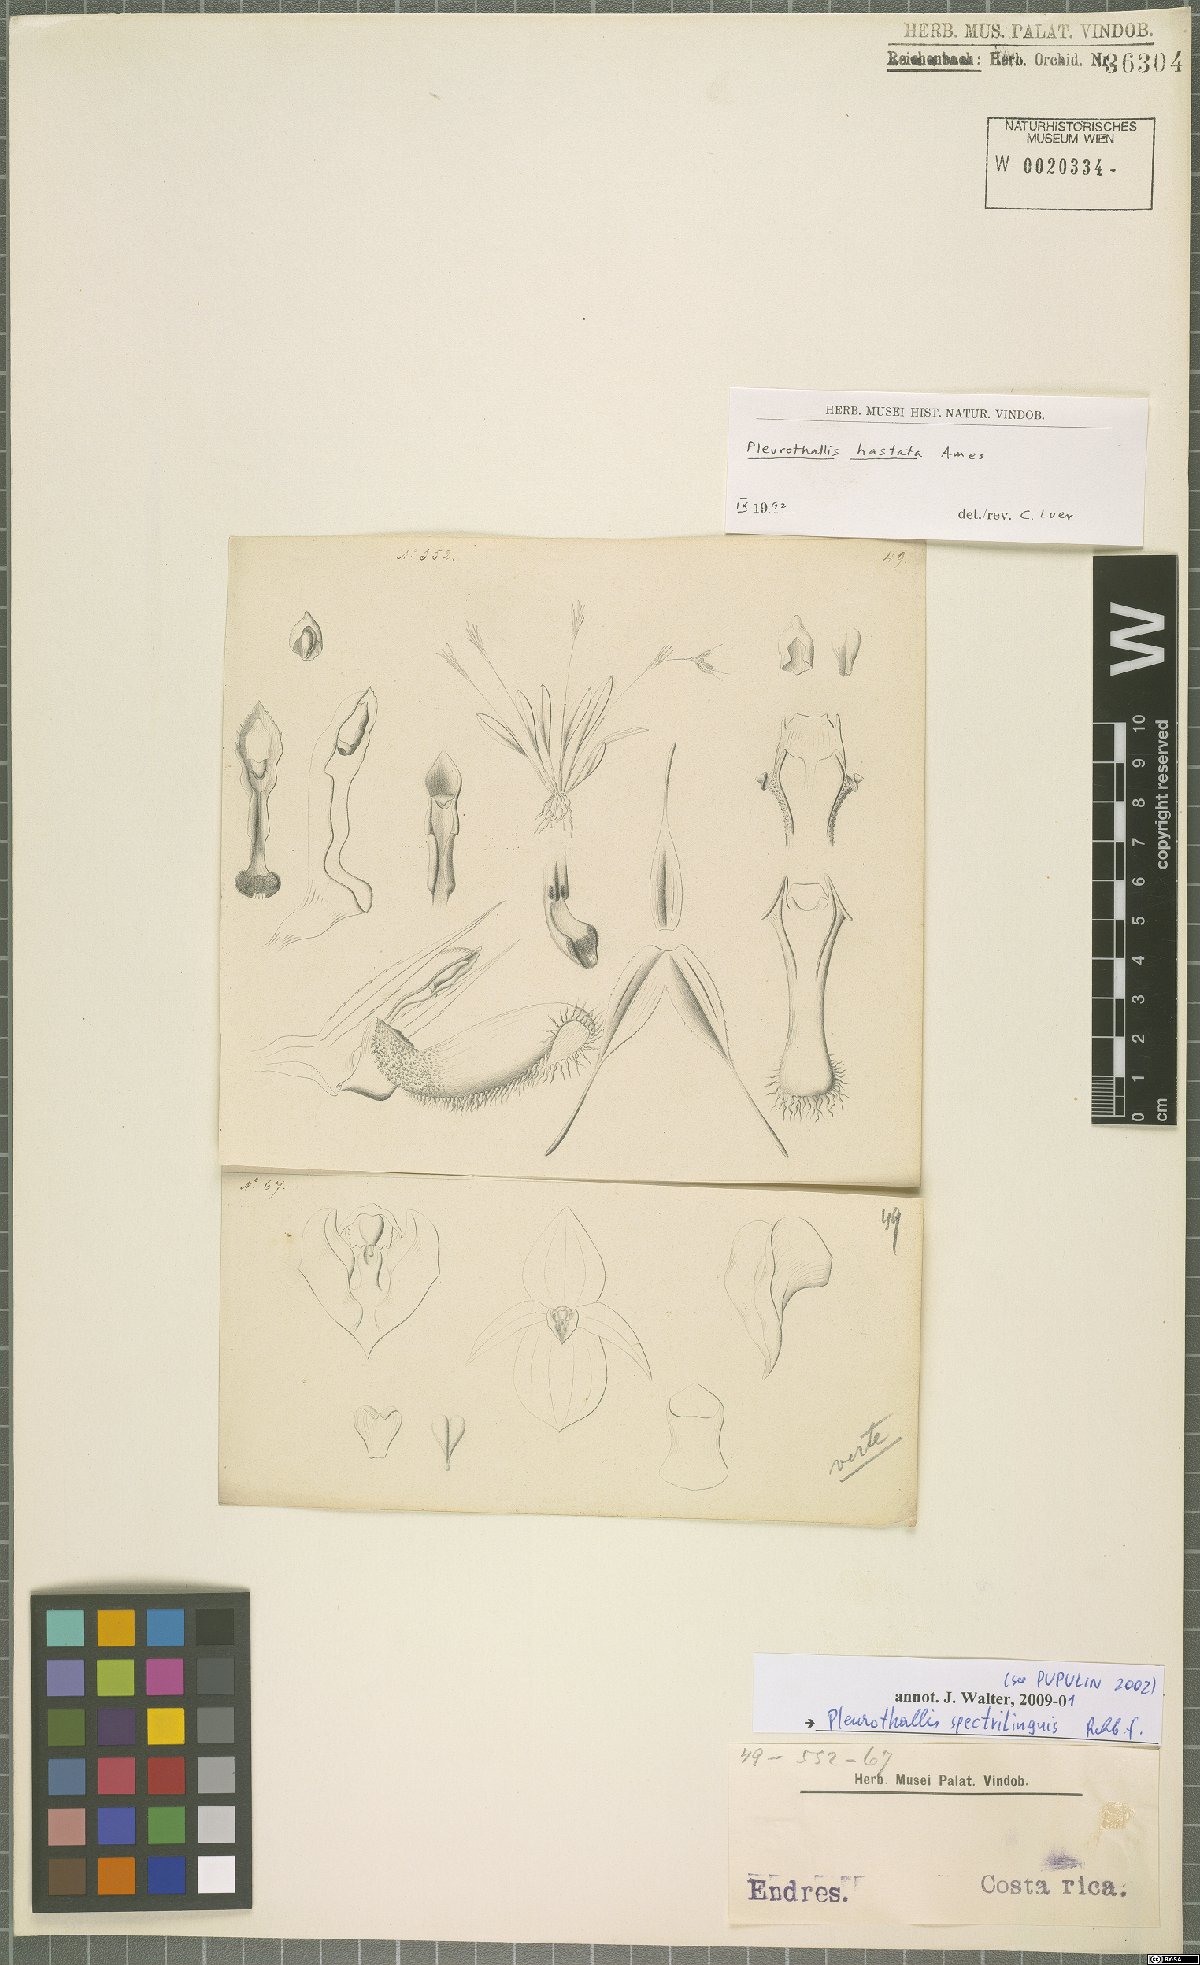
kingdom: Plantae
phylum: Tracheophyta
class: Liliopsida
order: Asparagales
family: Orchidaceae
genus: Muscarella
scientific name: Muscarella marginata
